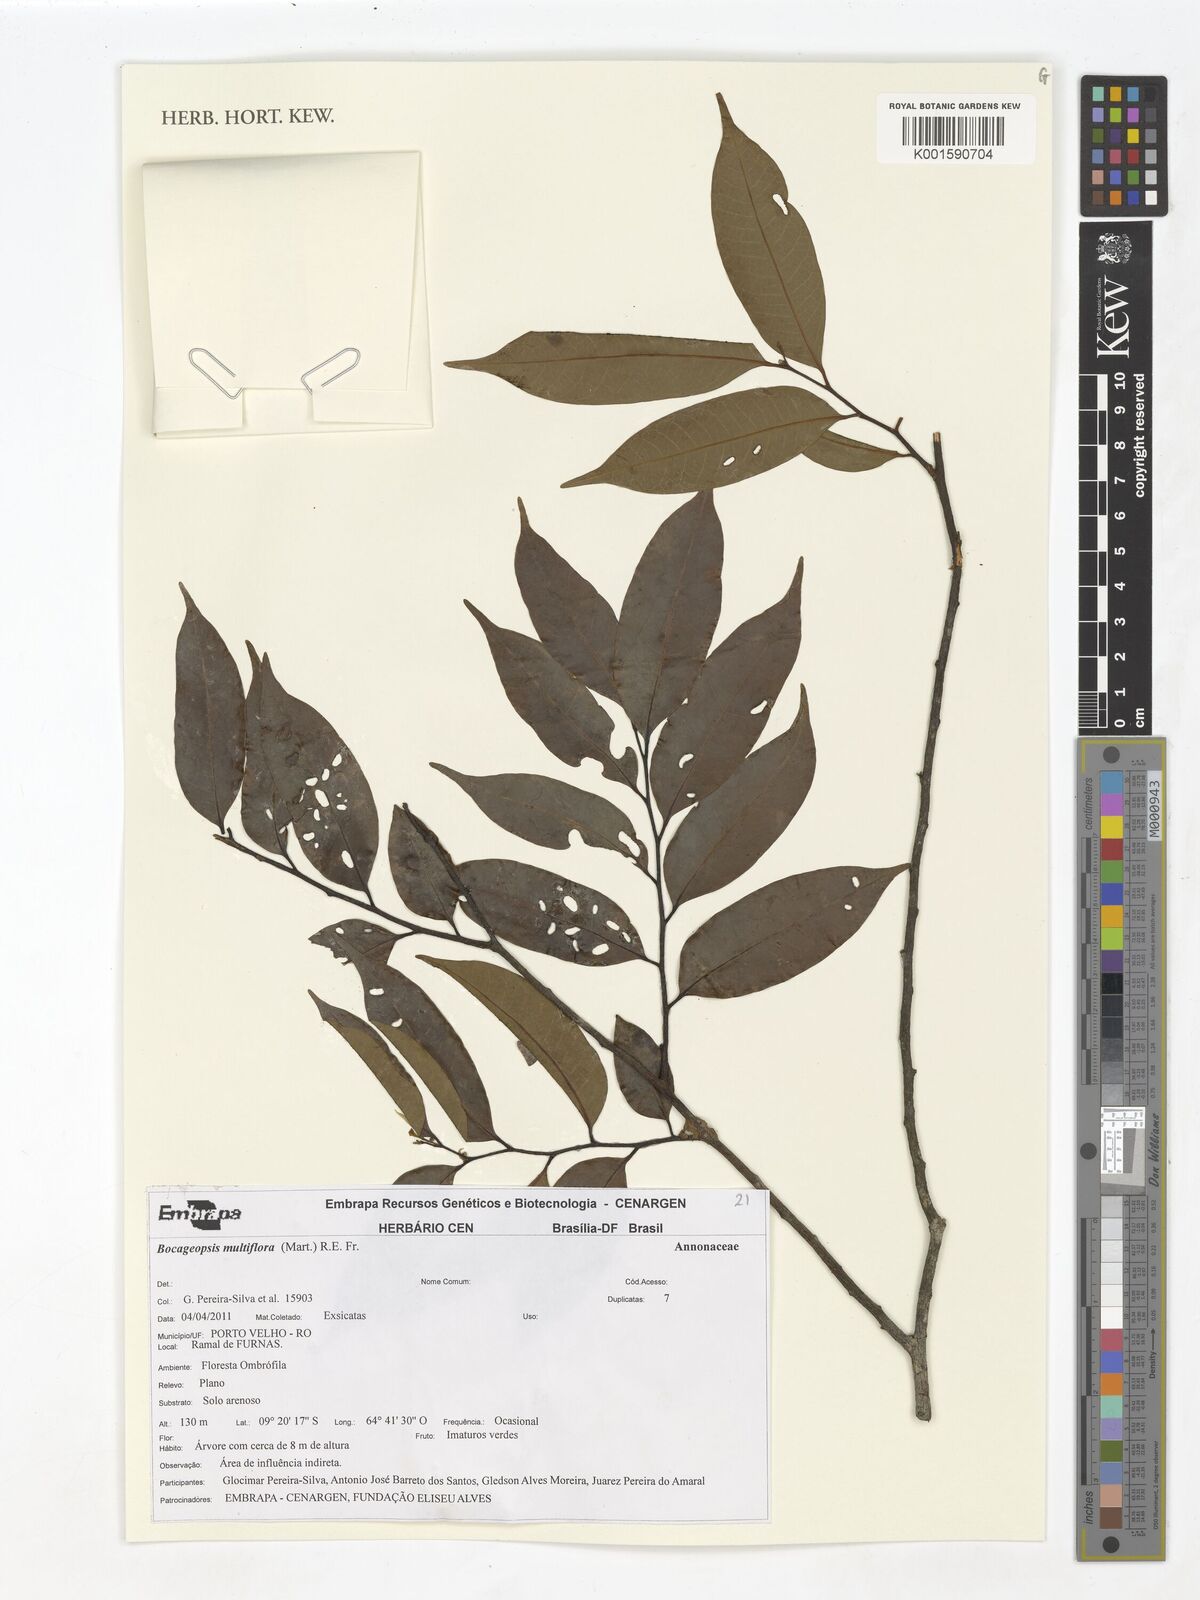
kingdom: Plantae
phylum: Tracheophyta
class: Magnoliopsida
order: Magnoliales
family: Annonaceae
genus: Bocageopsis
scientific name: Bocageopsis multiflora
